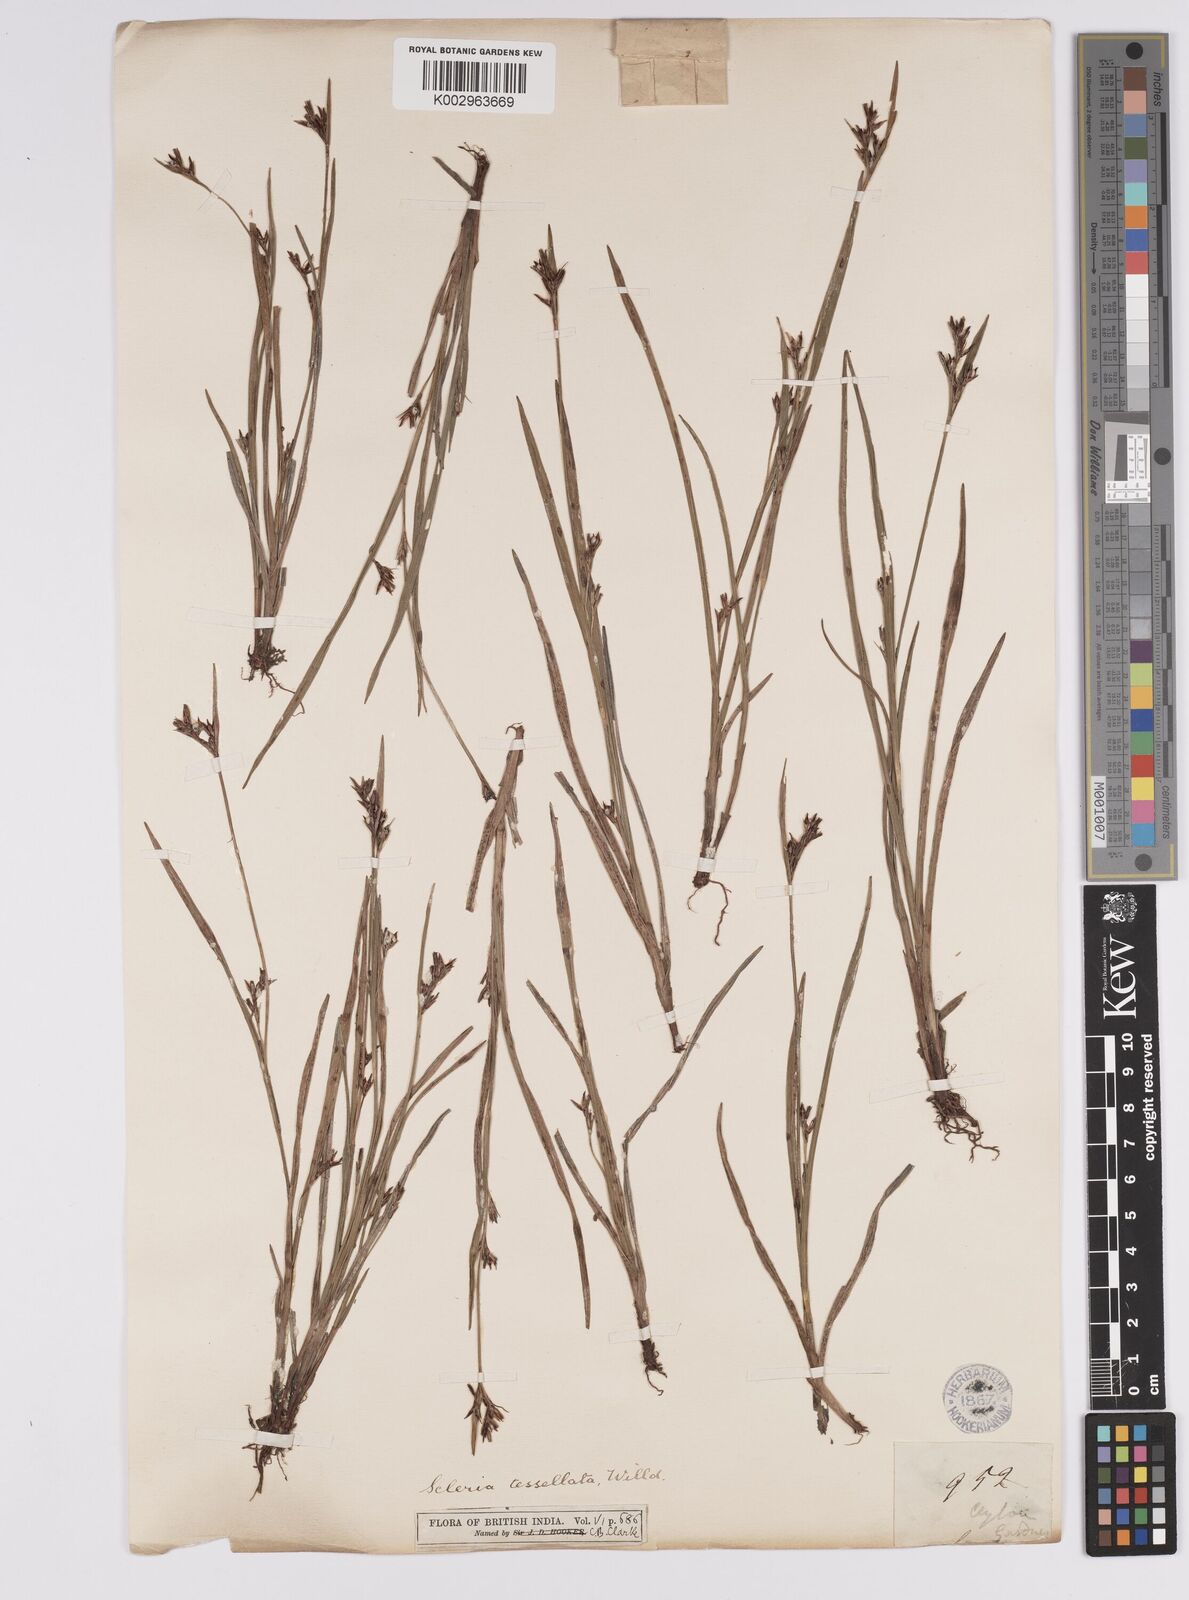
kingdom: Plantae
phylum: Tracheophyta
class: Liliopsida
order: Poales
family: Cyperaceae
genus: Scleria
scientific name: Scleria tessellata
